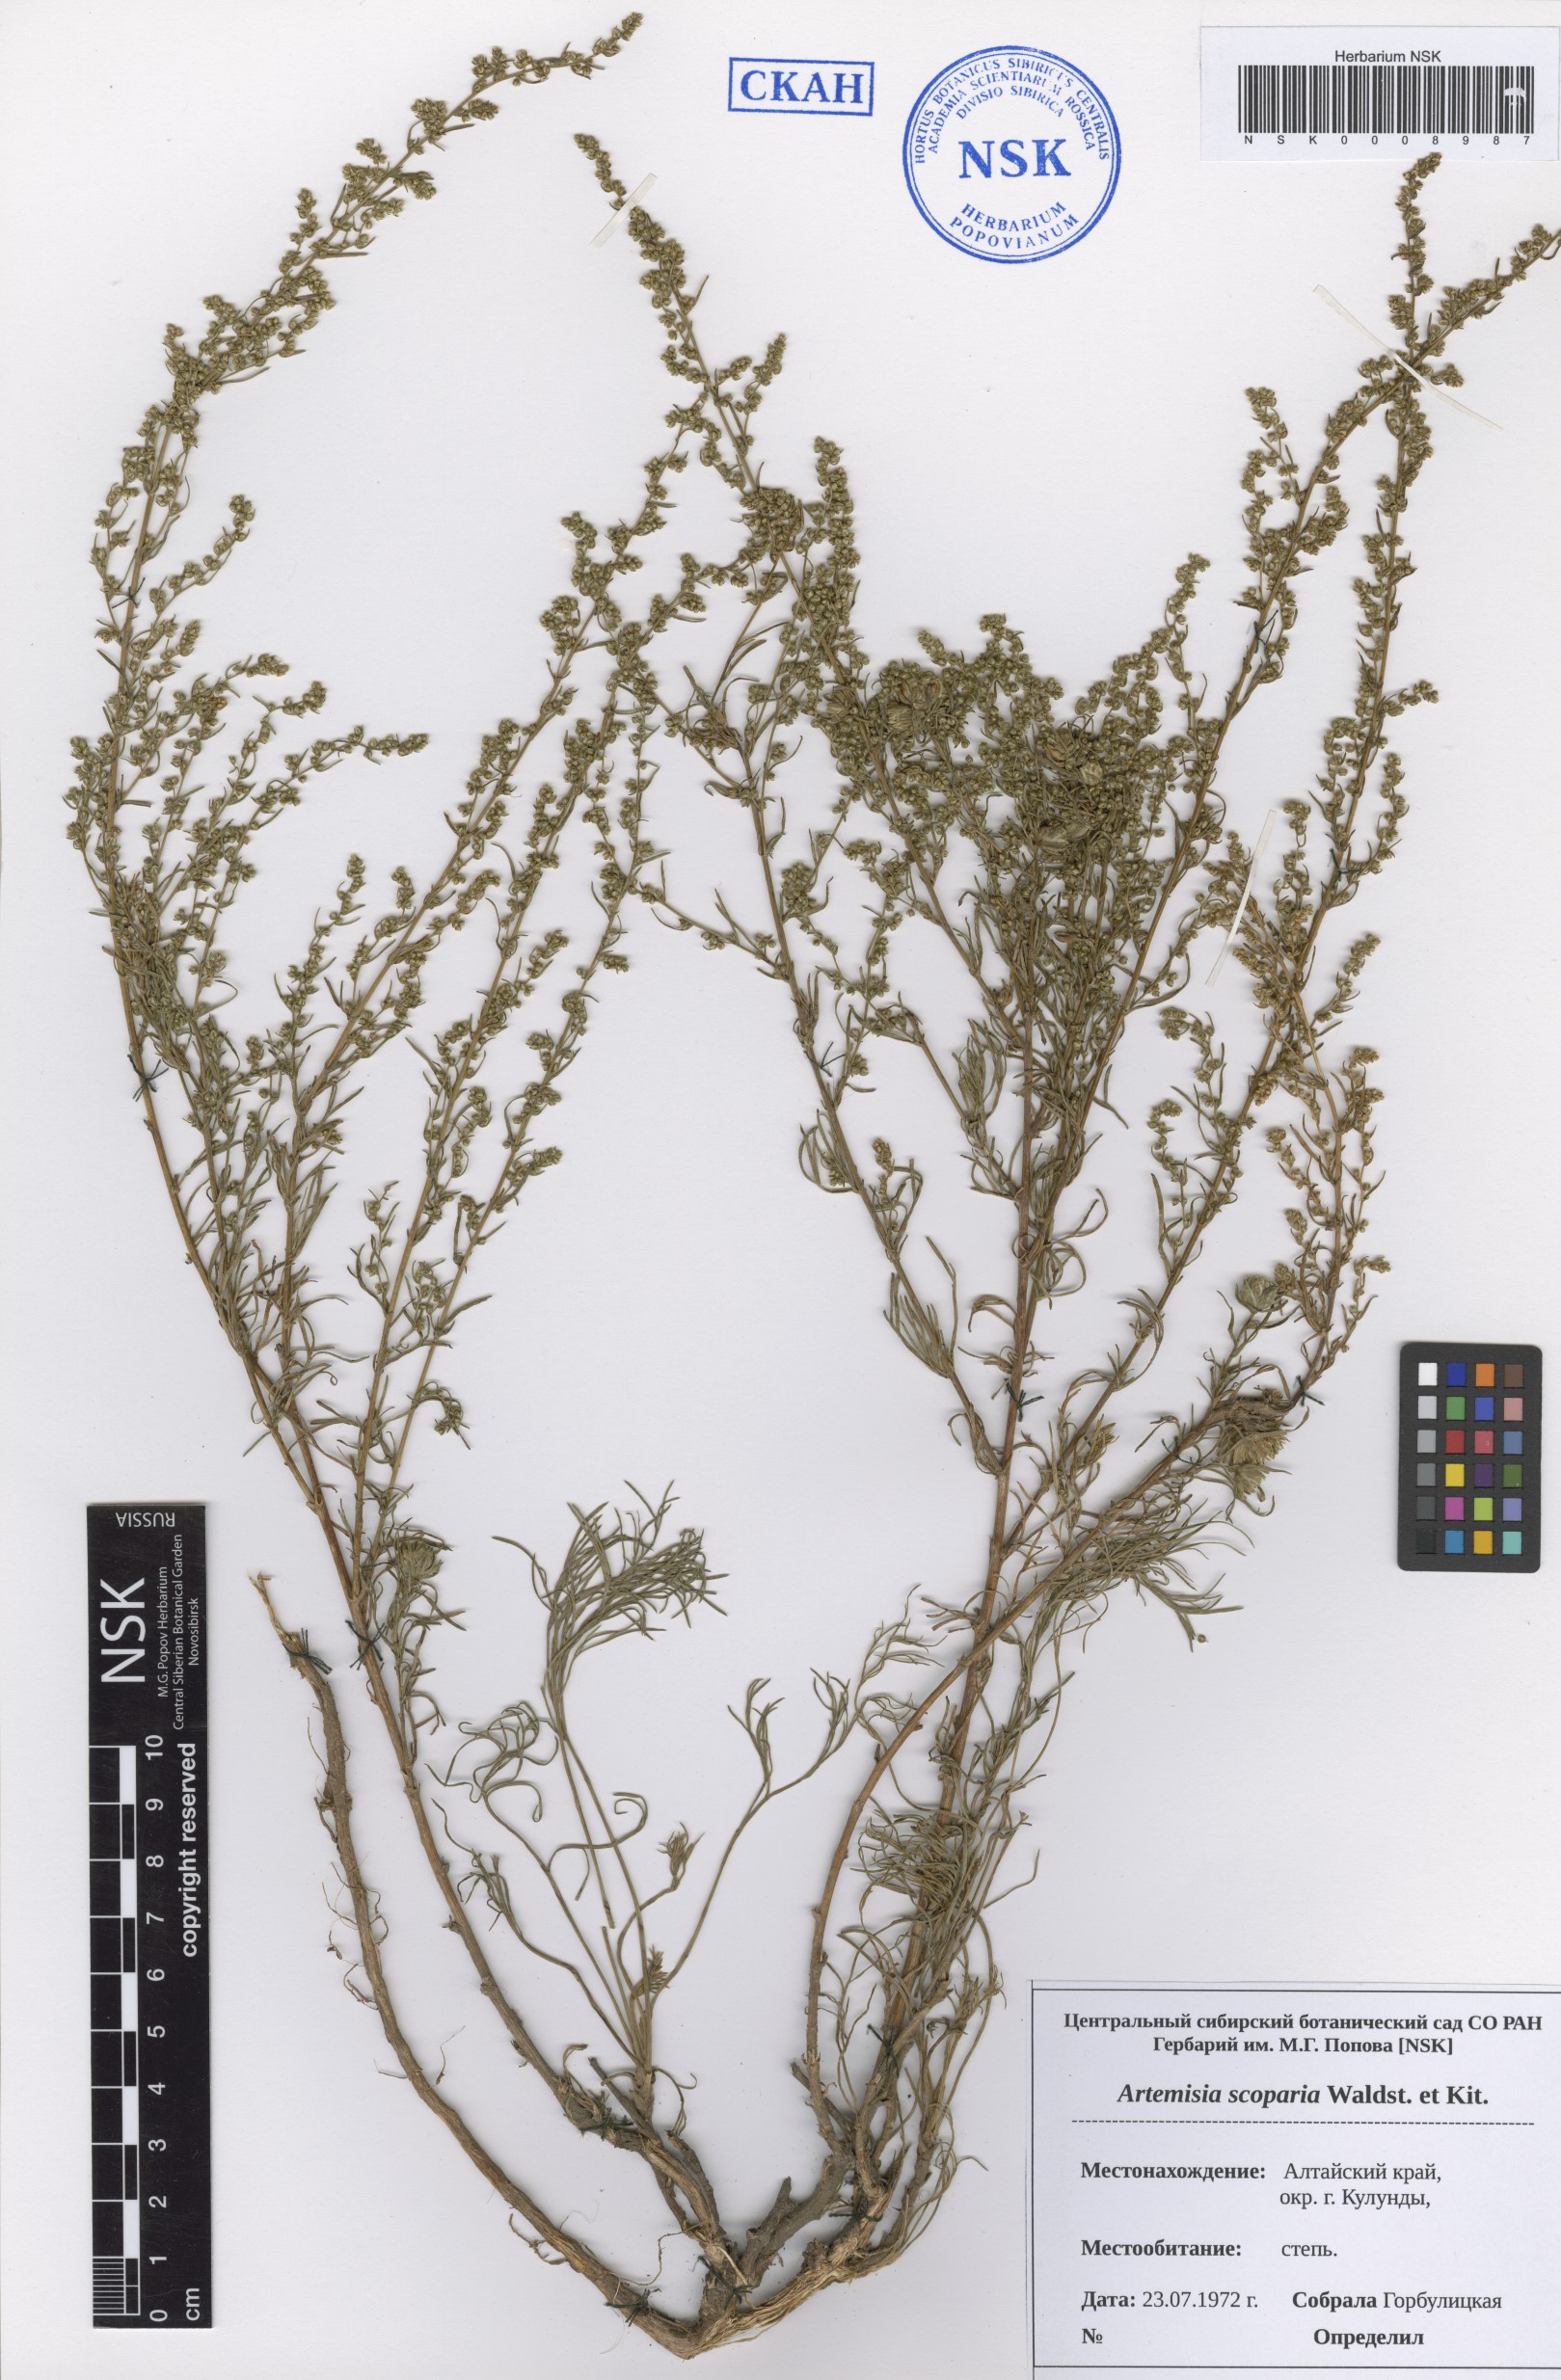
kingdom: Plantae
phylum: Tracheophyta
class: Magnoliopsida
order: Asterales
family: Asteraceae
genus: Artemisia
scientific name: Artemisia scoparia
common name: Redstem wormwood
